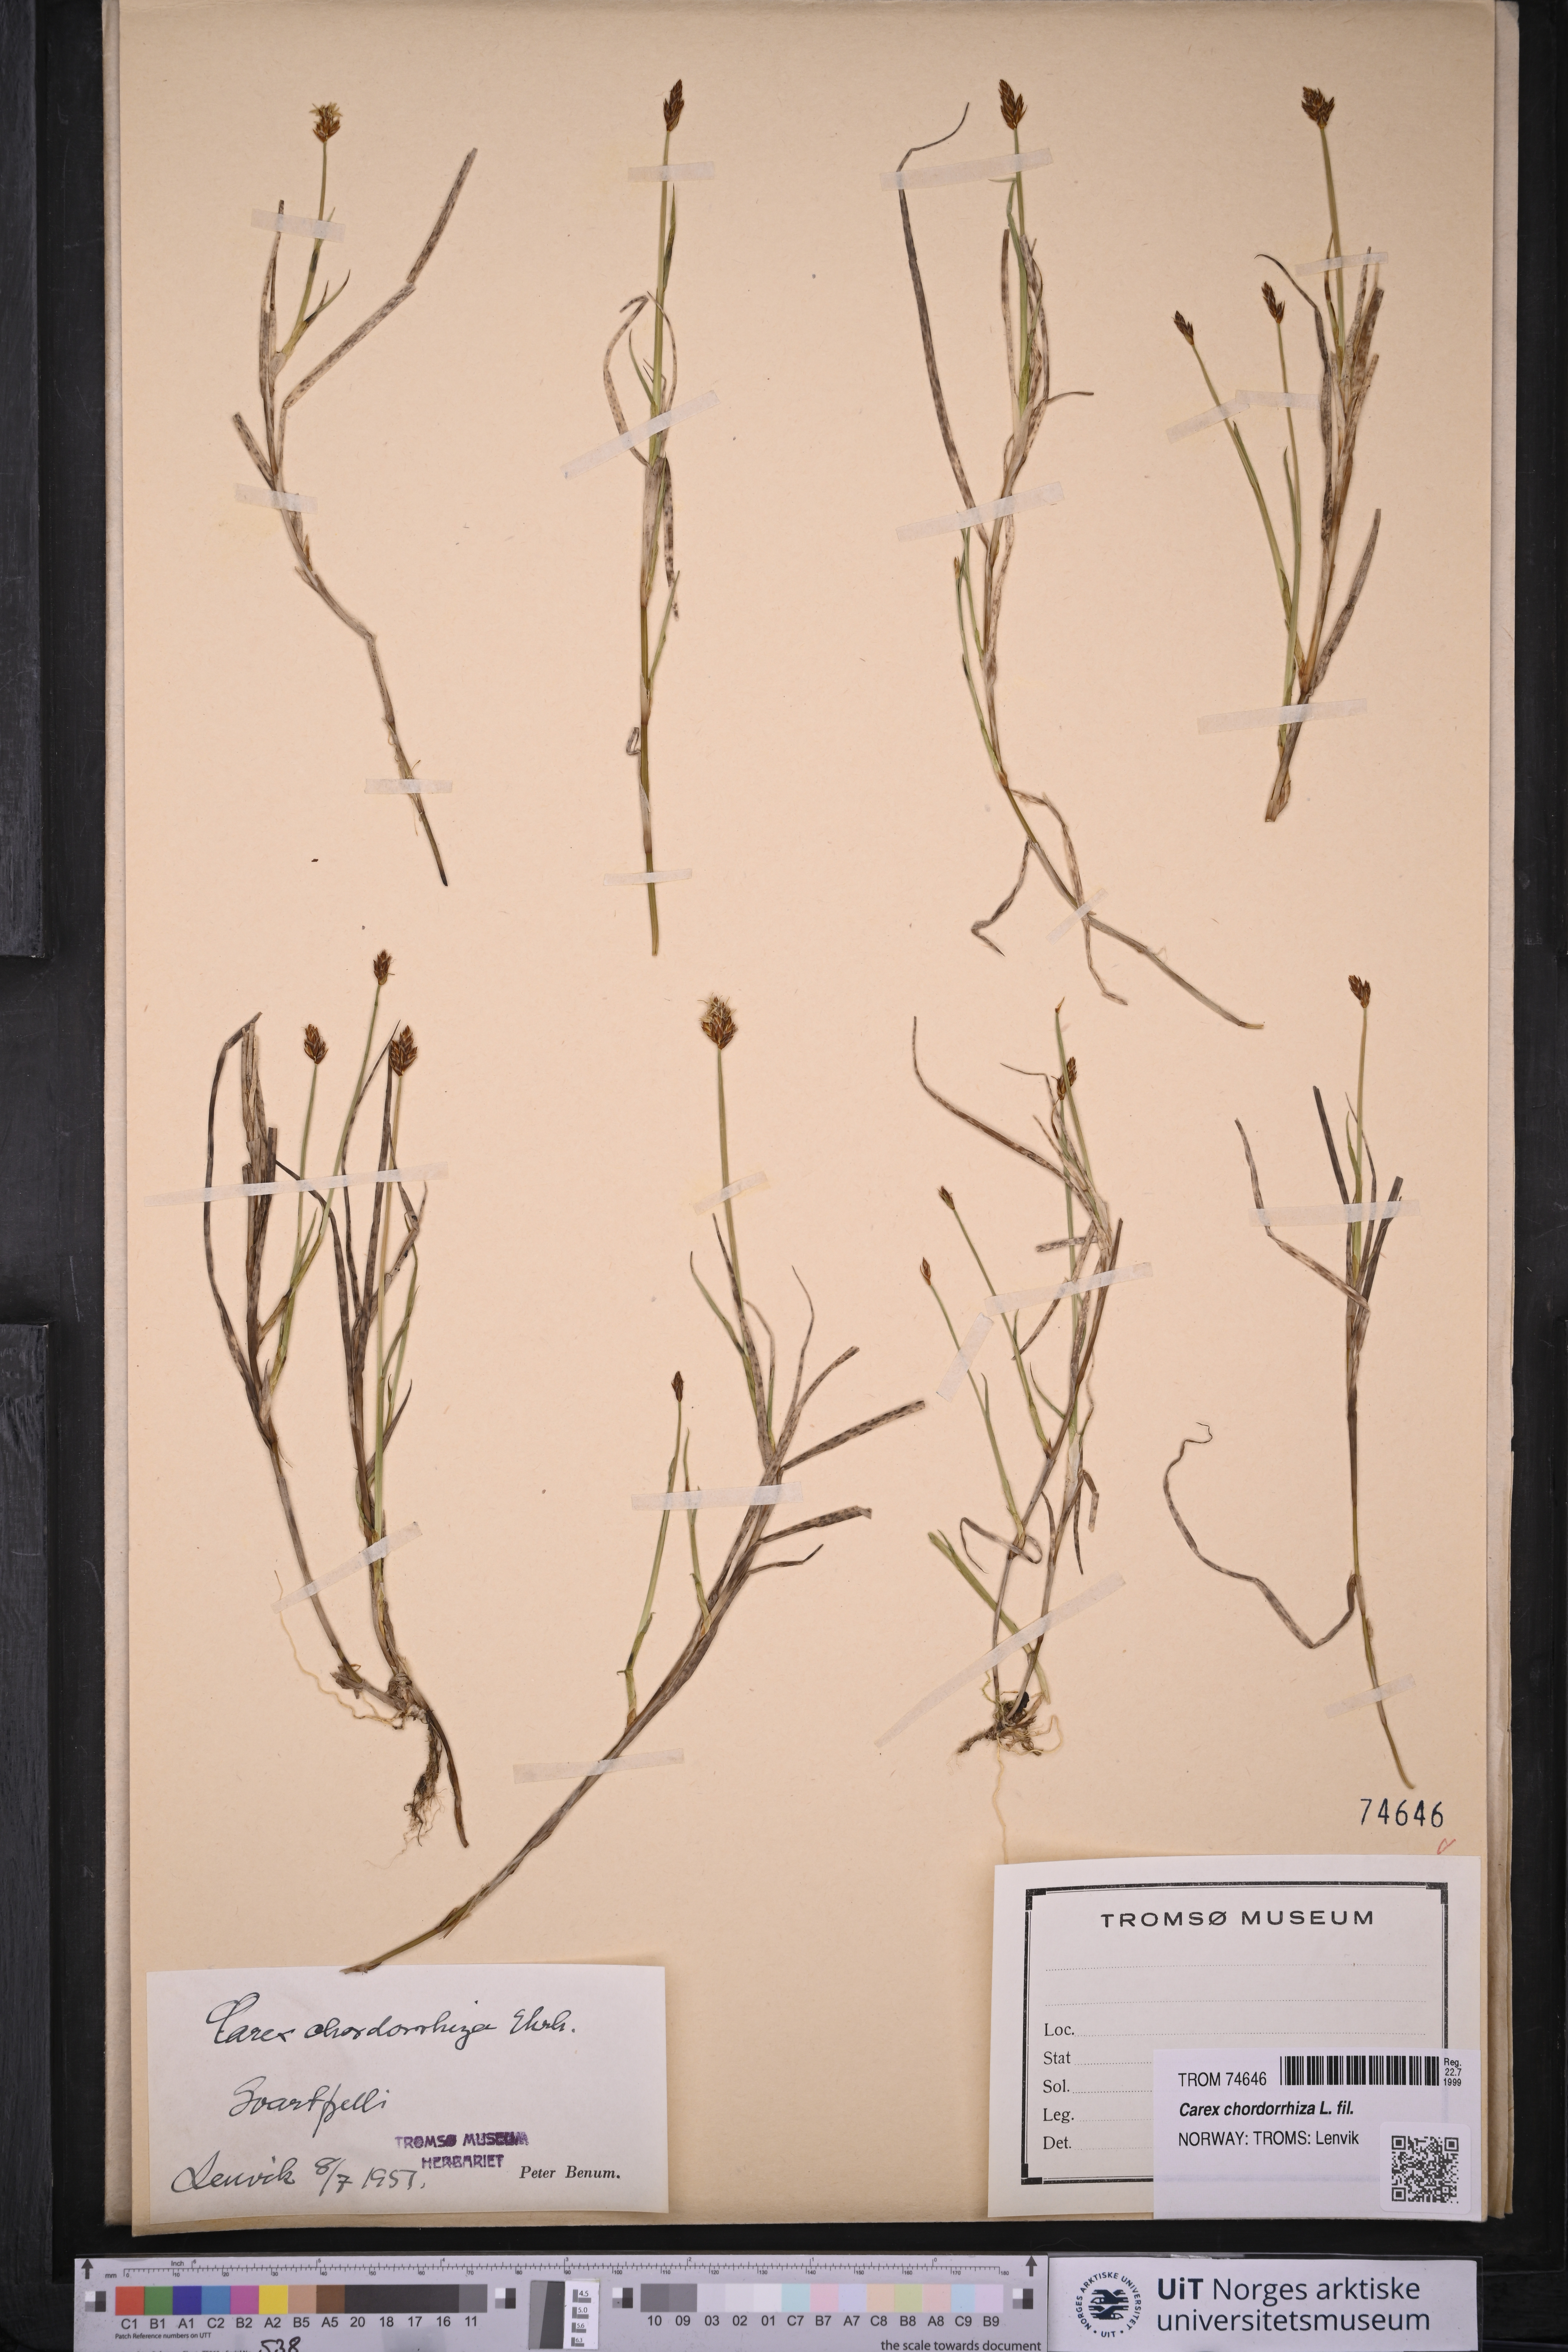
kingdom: Plantae
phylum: Tracheophyta
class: Liliopsida
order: Poales
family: Cyperaceae
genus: Carex
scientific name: Carex chordorrhiza
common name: String sedge
